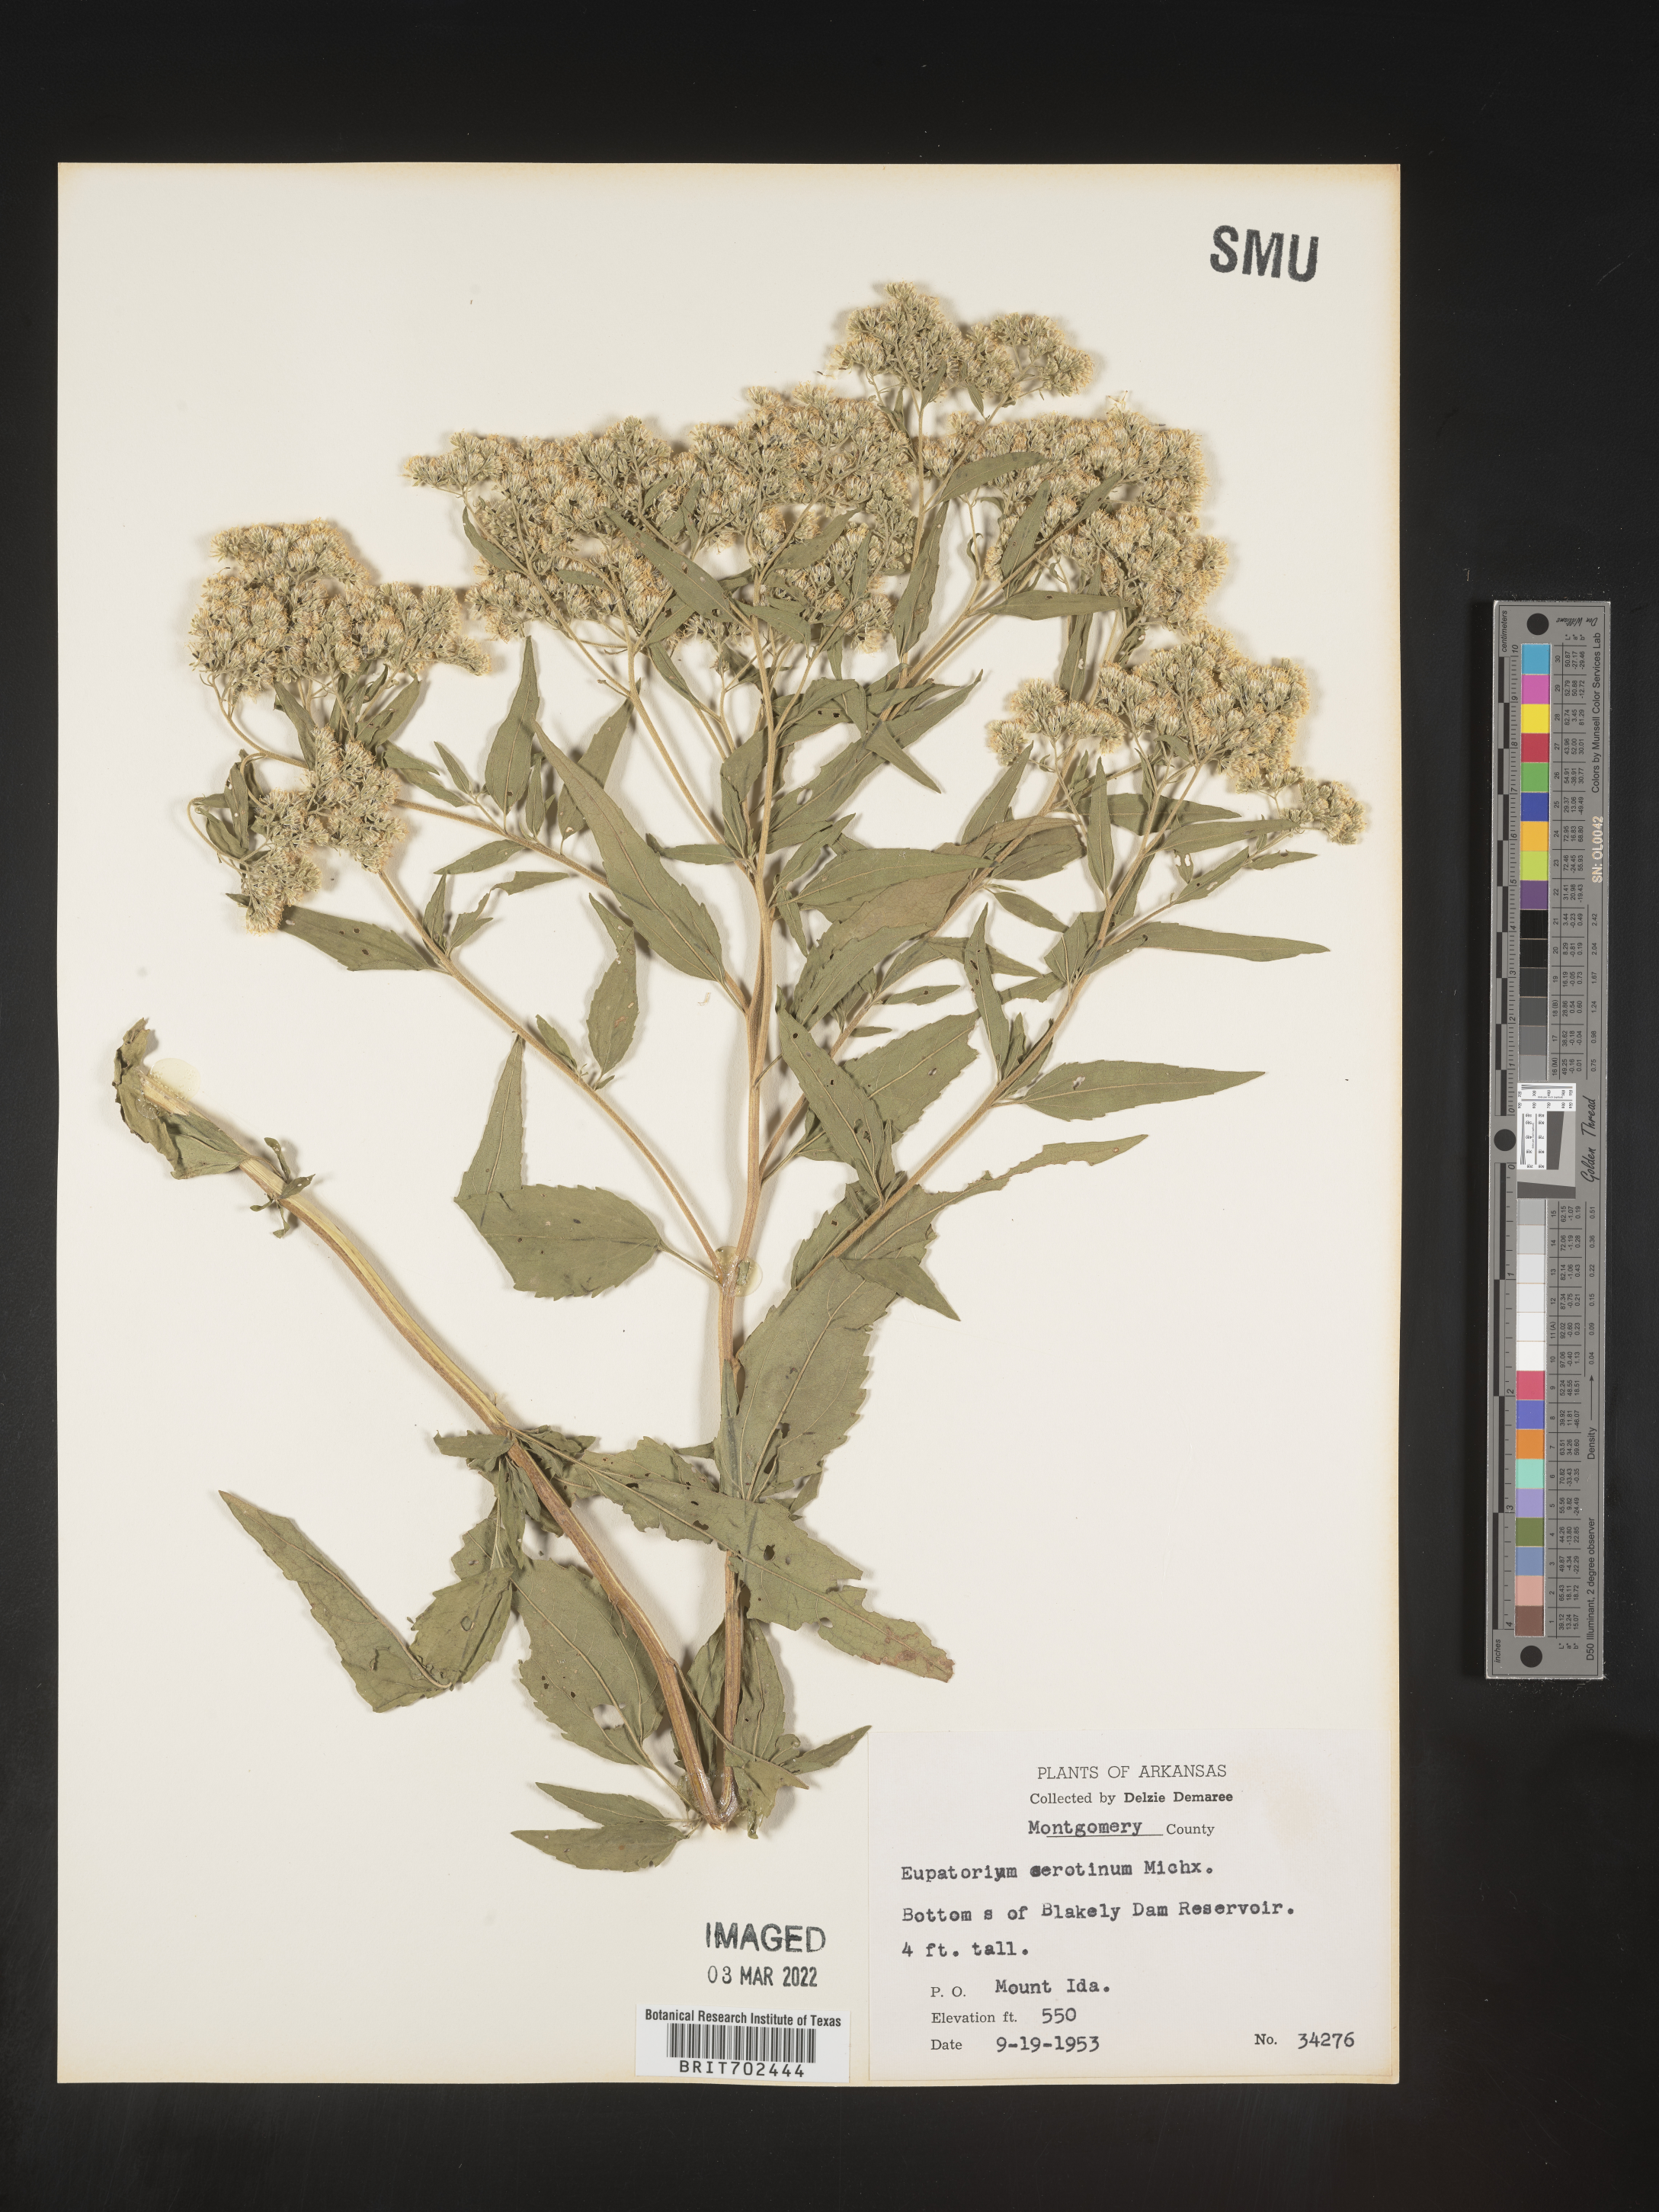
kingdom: Plantae
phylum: Tracheophyta
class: Magnoliopsida
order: Asterales
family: Asteraceae
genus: Eupatorium
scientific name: Eupatorium serotinum
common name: Late boneset
